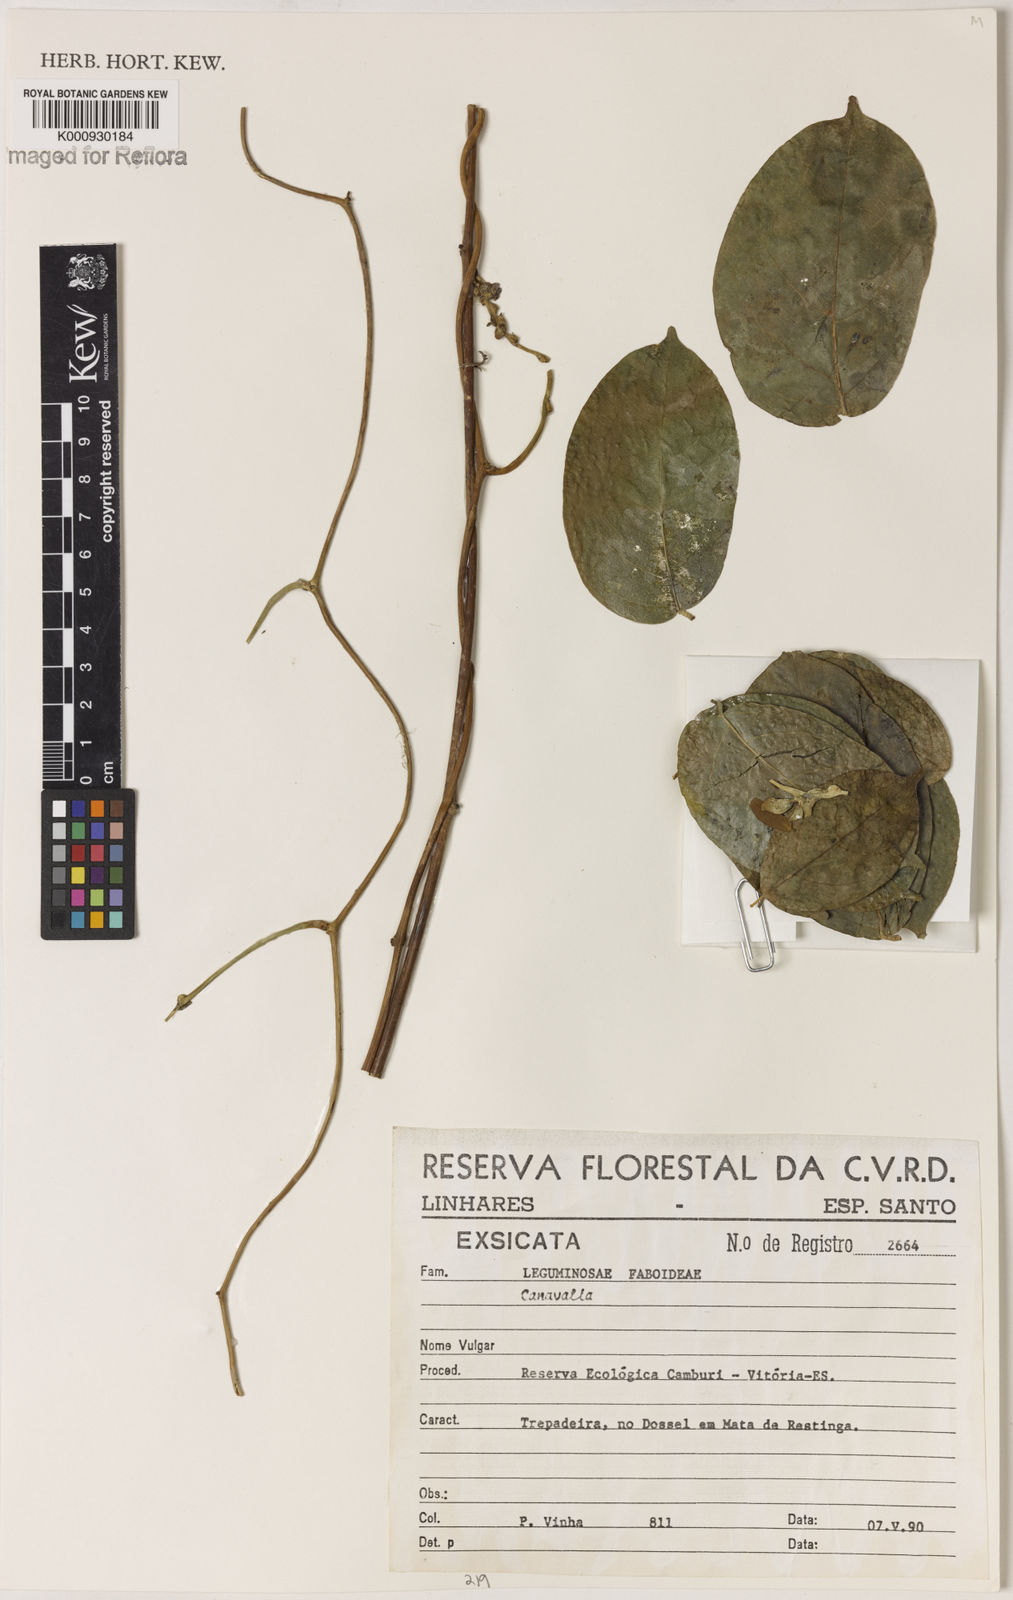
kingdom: Plantae
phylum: Tracheophyta
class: Magnoliopsida
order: Fabales
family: Fabaceae
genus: Canavalia
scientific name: Canavalia
